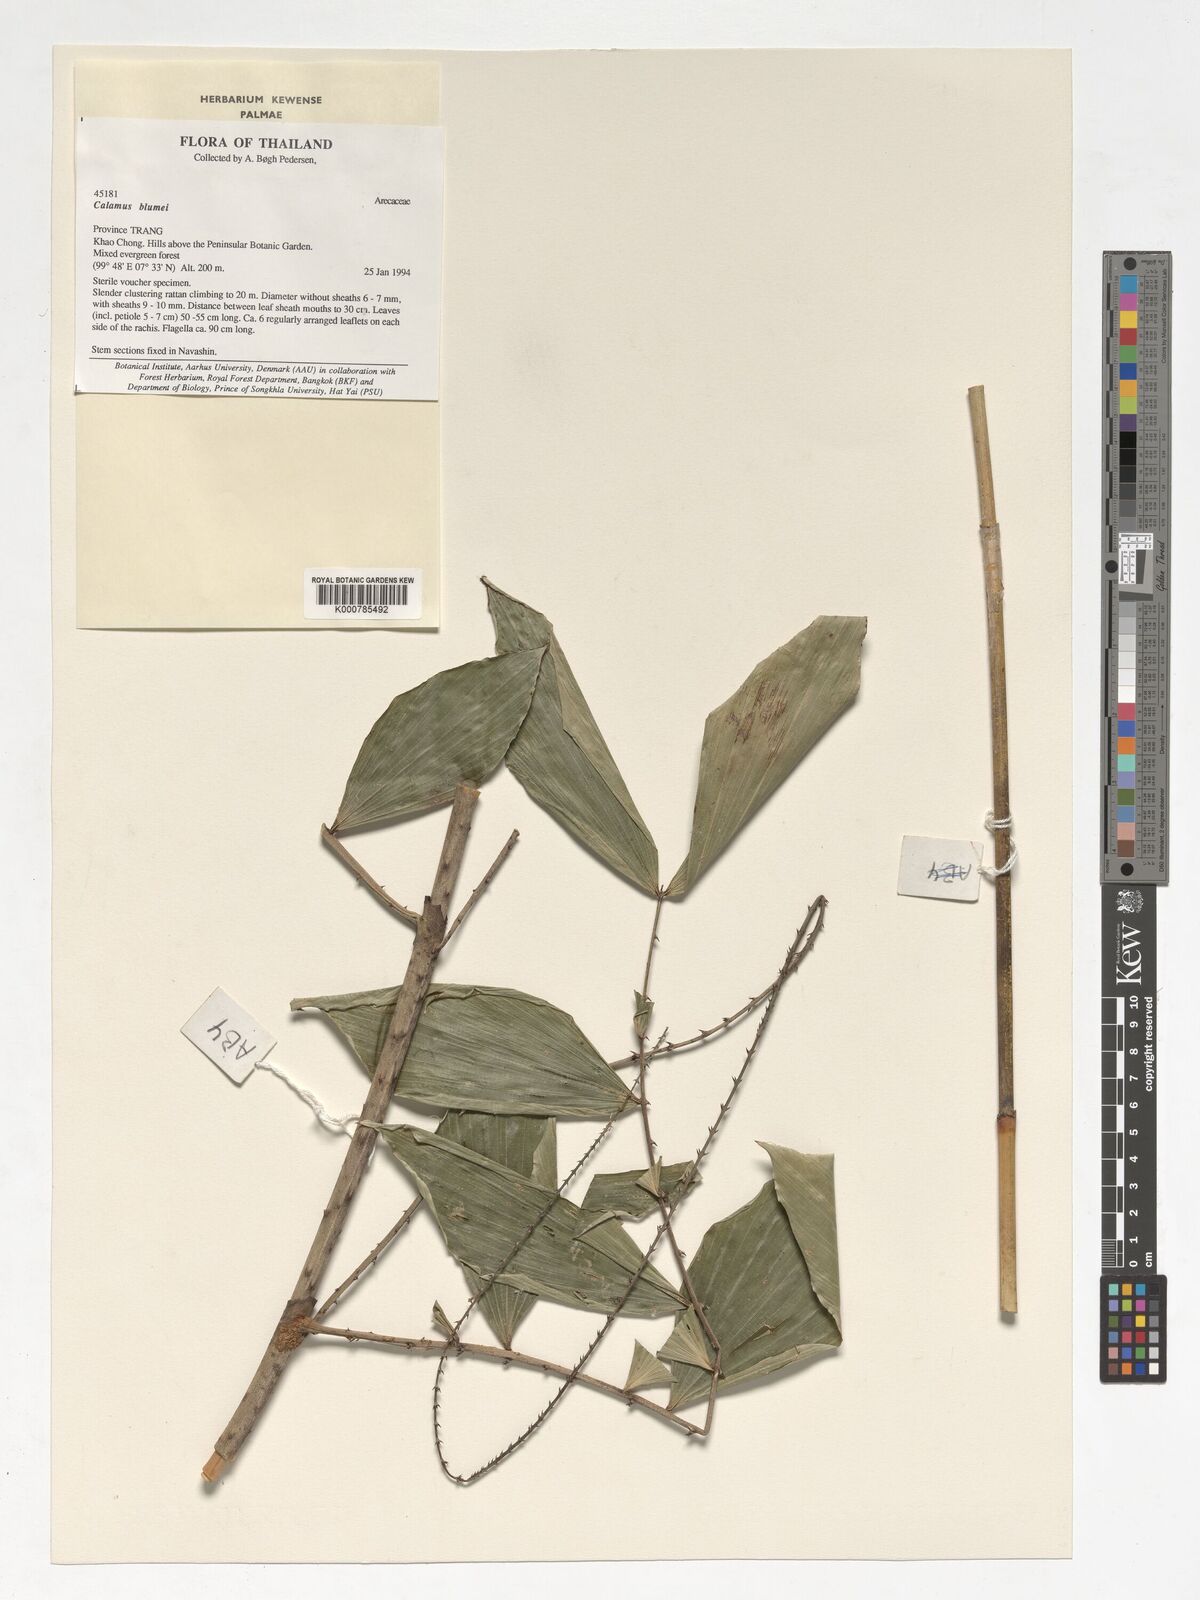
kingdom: Plantae
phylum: Tracheophyta
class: Liliopsida
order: Arecales
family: Arecaceae
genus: Calamus
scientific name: Calamus rhomboideus
